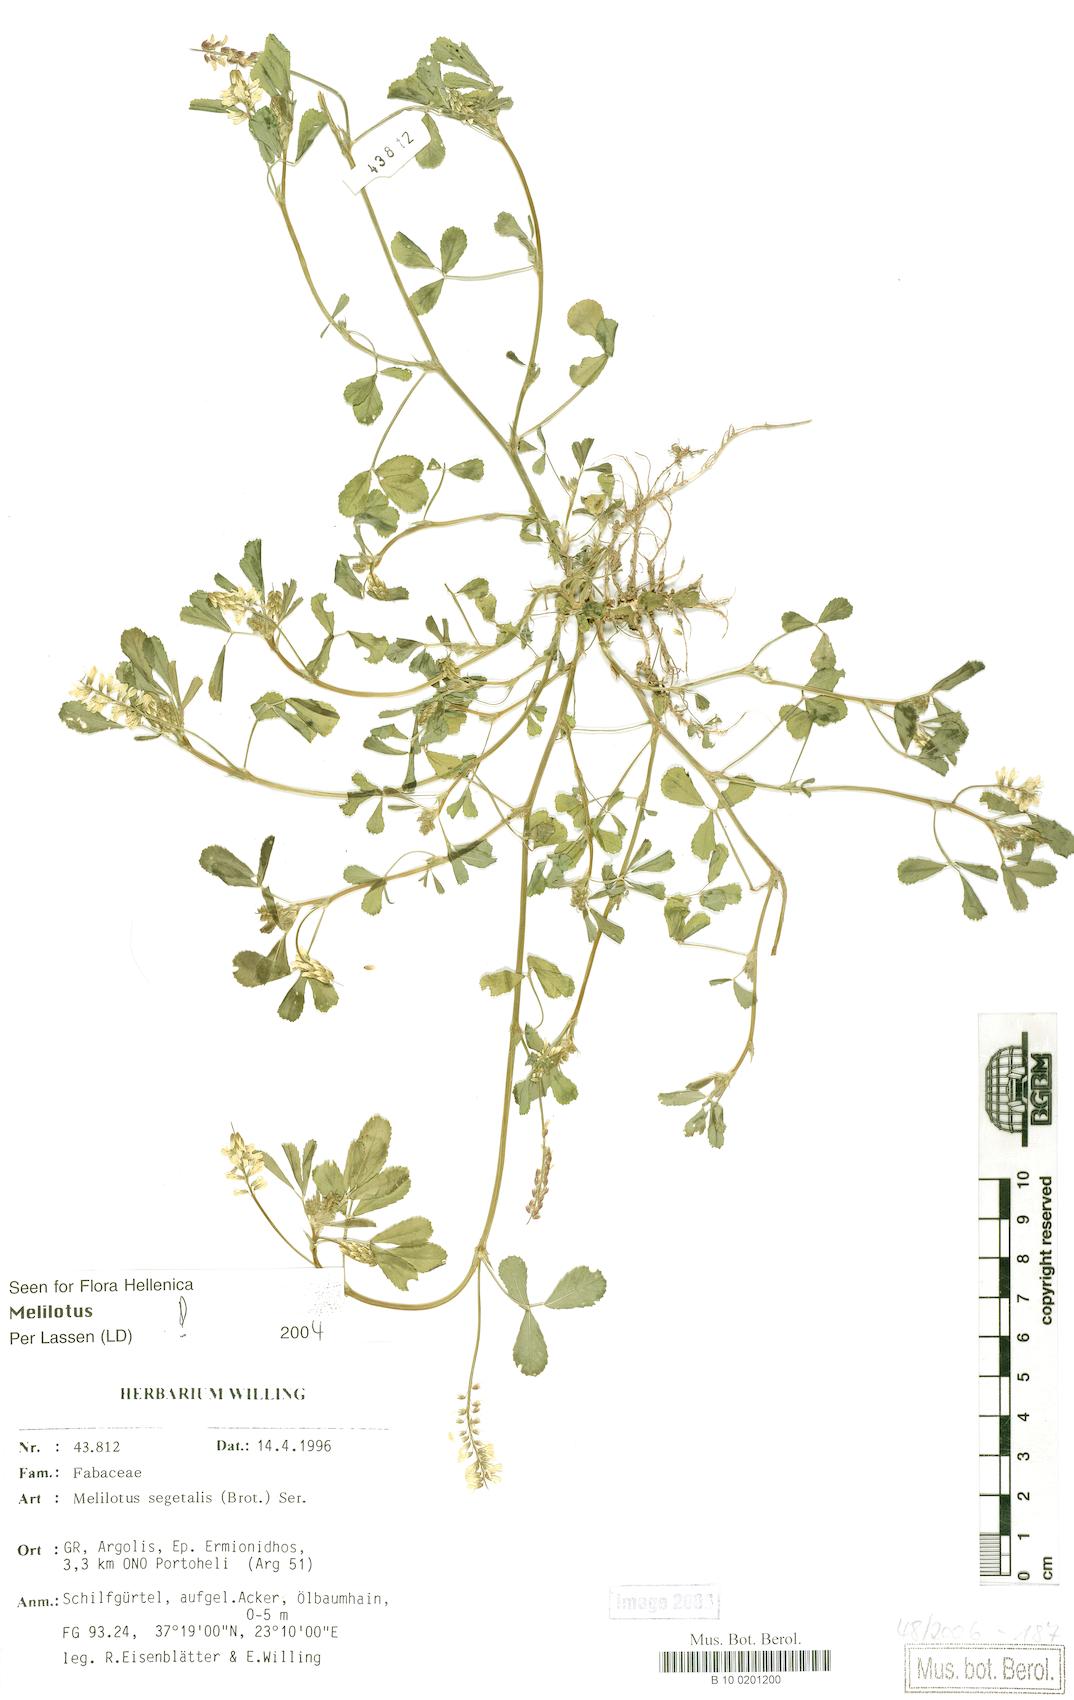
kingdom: Plantae
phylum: Tracheophyta
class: Magnoliopsida
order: Fabales
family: Fabaceae
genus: Melilotus
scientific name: Melilotus segetalis
